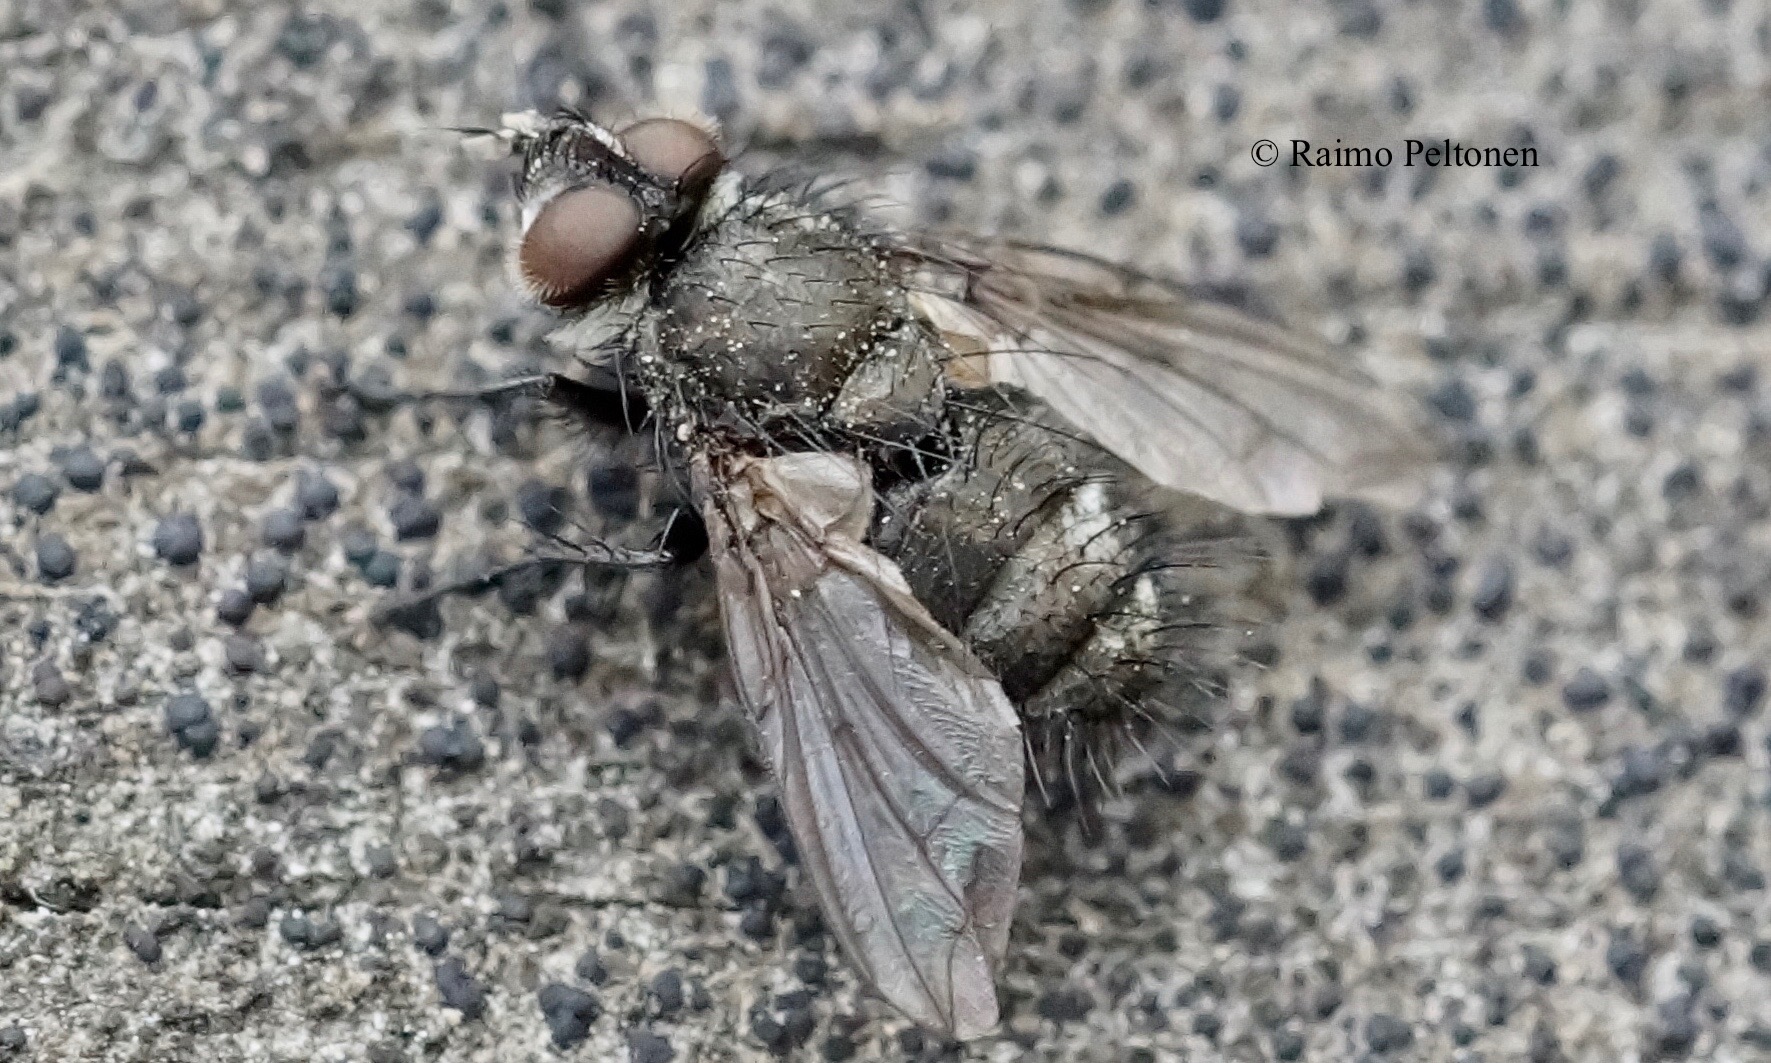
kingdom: Animalia
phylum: Arthropoda
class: Insecta
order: Diptera
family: Tachinidae
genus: Lypha
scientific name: Lypha dubia
